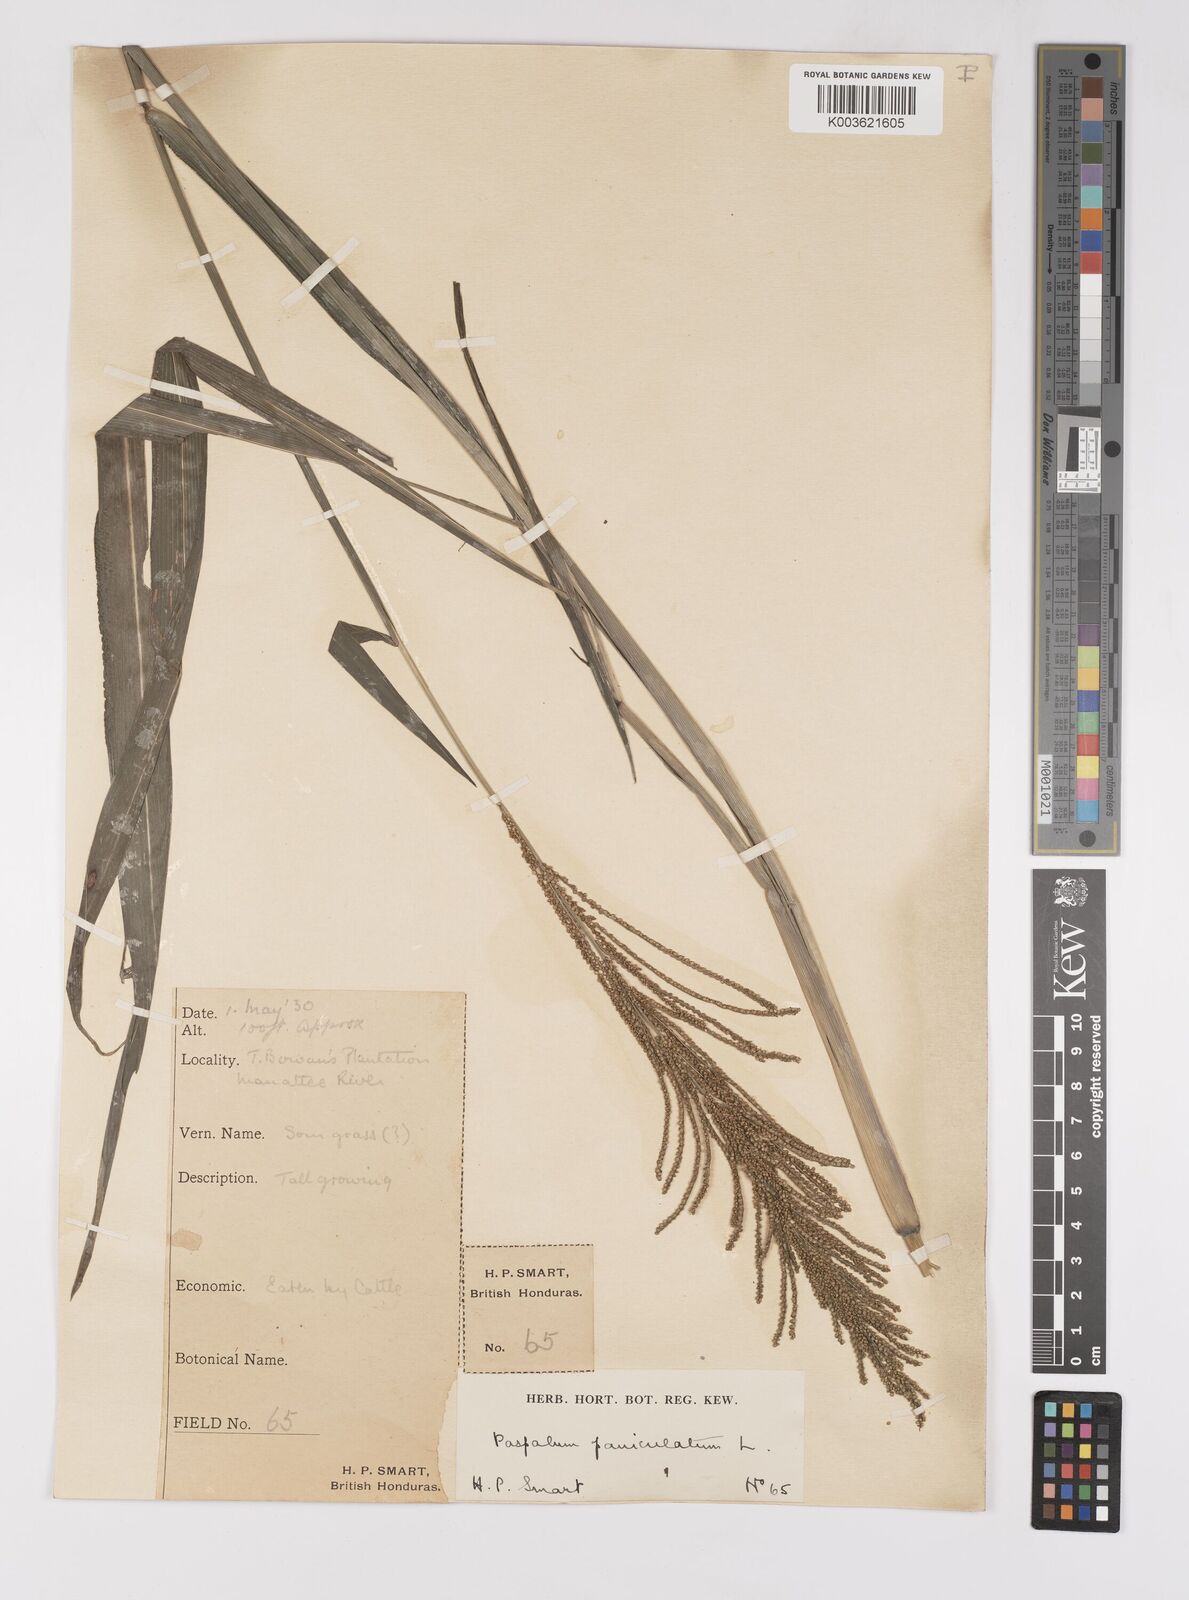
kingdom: Plantae
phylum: Tracheophyta
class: Liliopsida
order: Poales
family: Poaceae
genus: Paspalum
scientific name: Paspalum paniculatum
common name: Arrocillo
